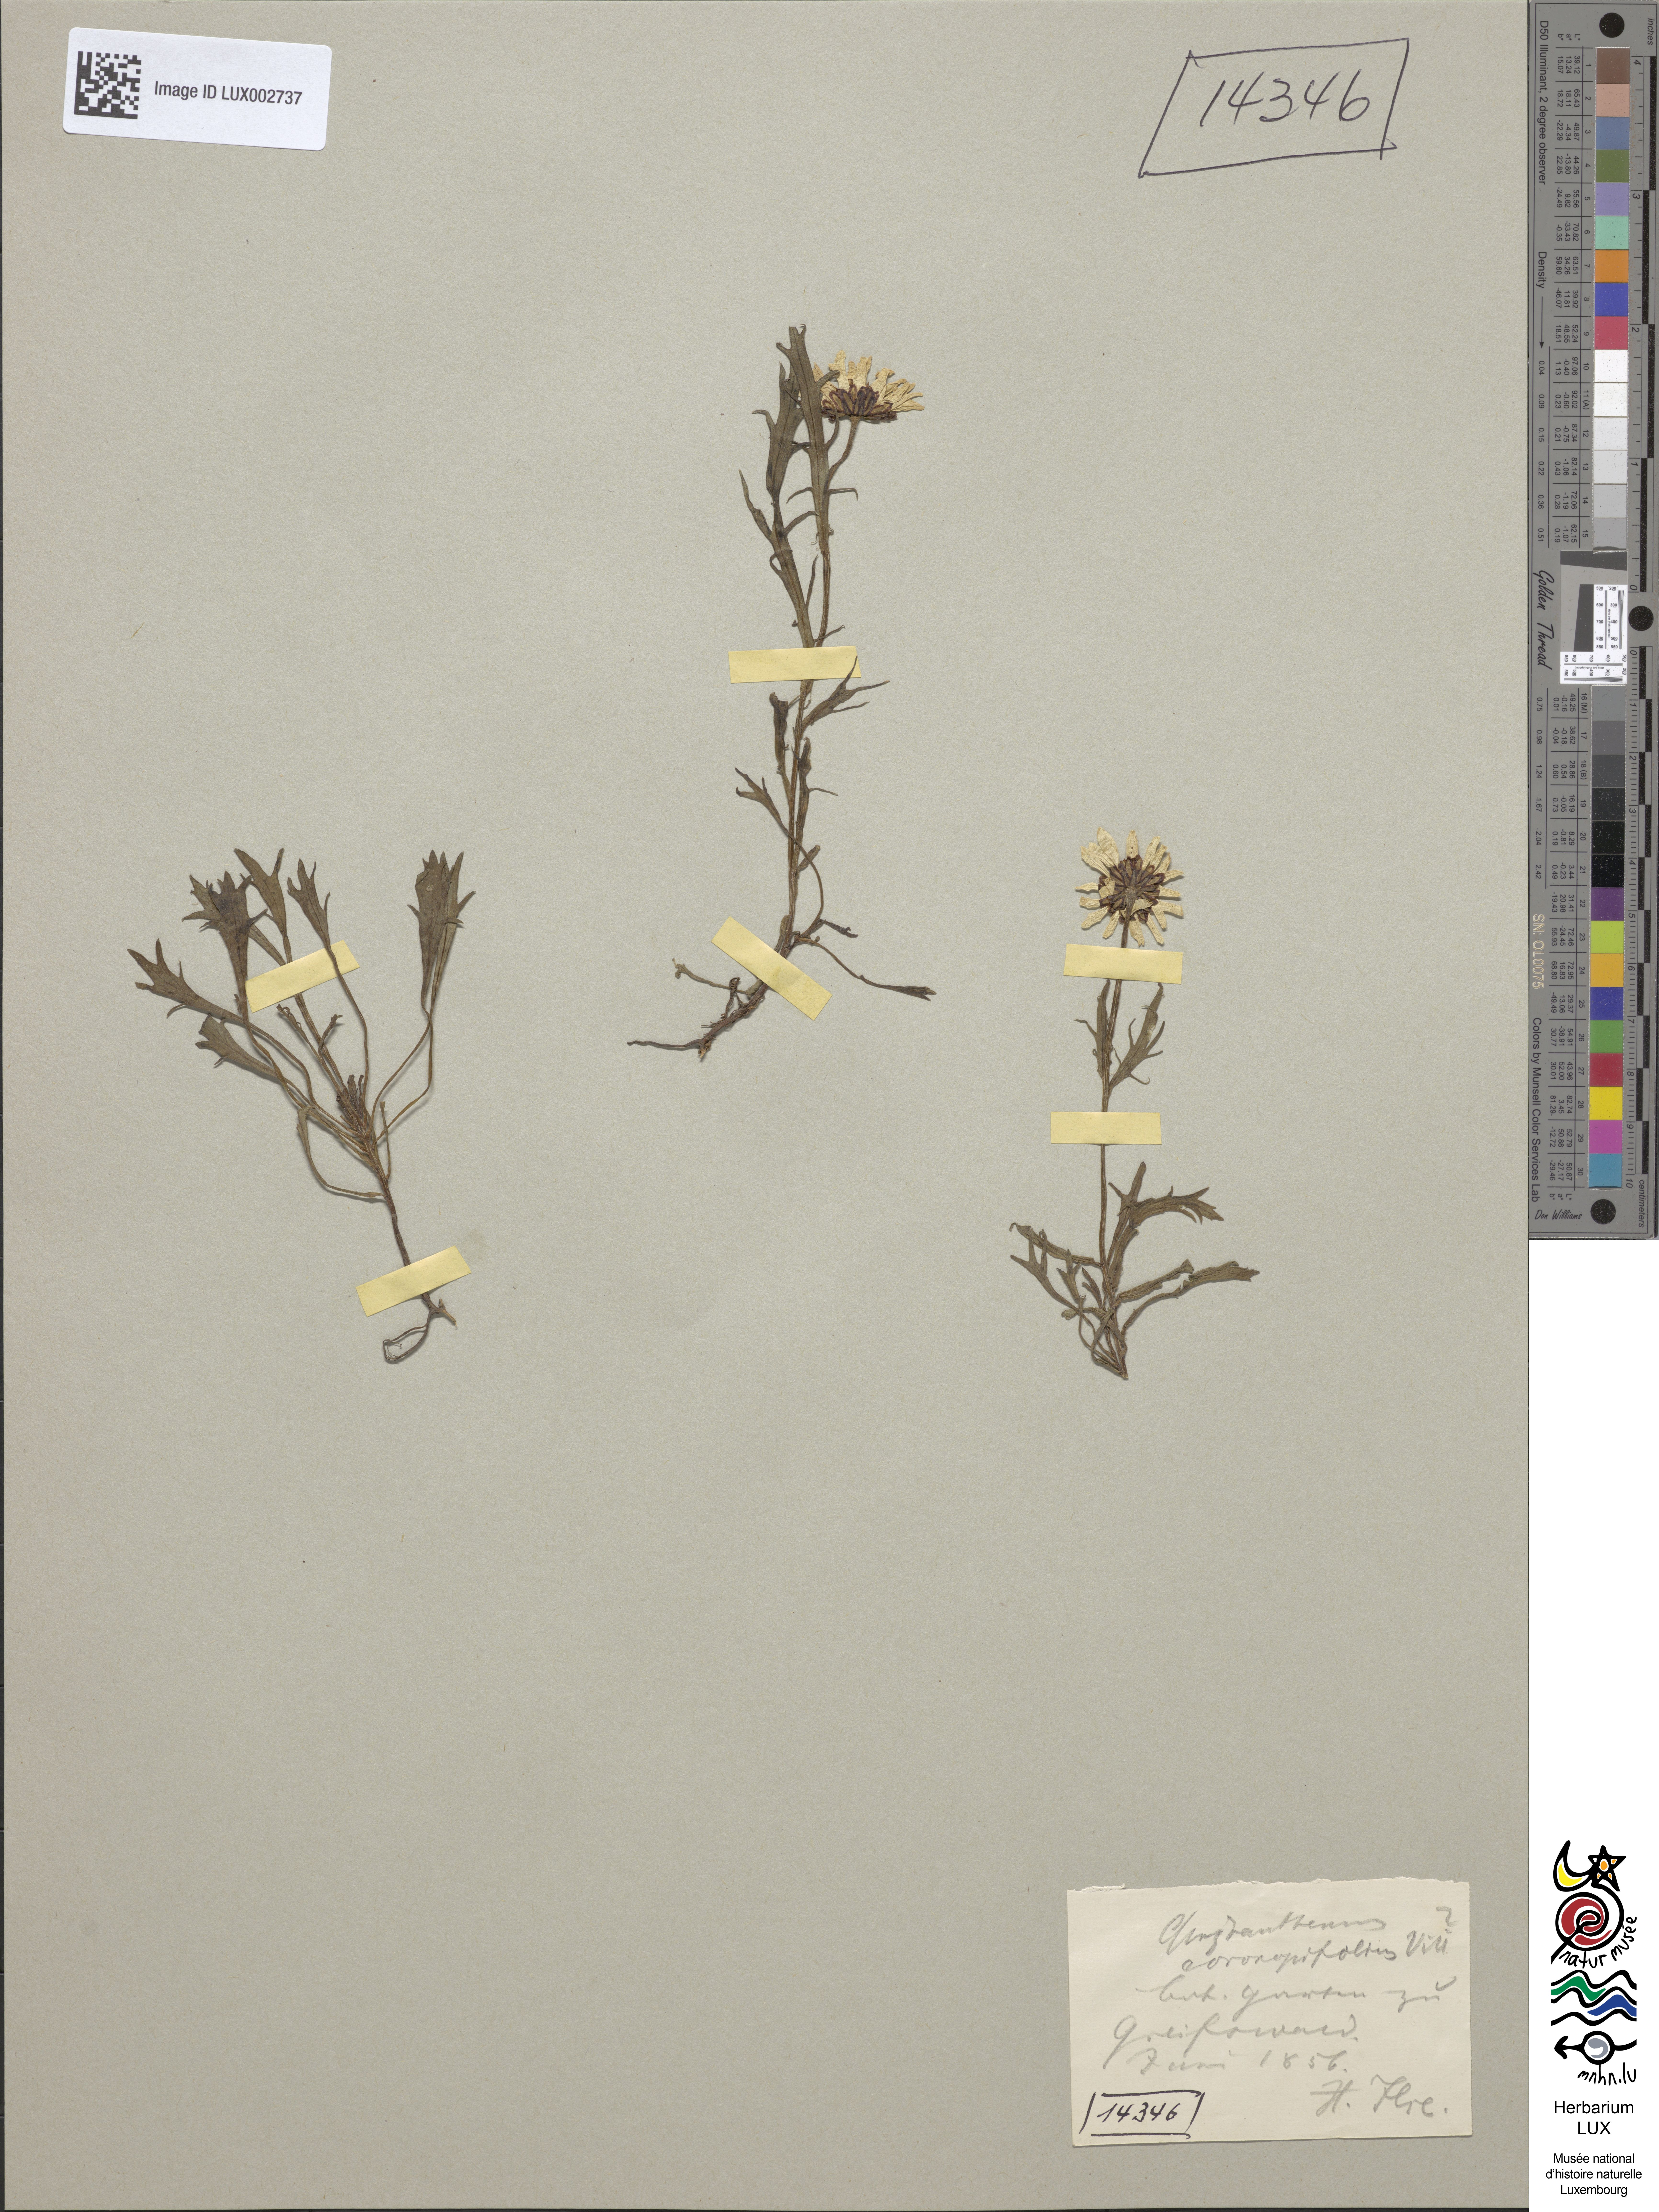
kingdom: Plantae
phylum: Tracheophyta
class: Magnoliopsida
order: Asterales
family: Asteraceae
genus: Leucanthemum
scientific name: Leucanthemum atratum
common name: Saw-leaved moon-daisy
